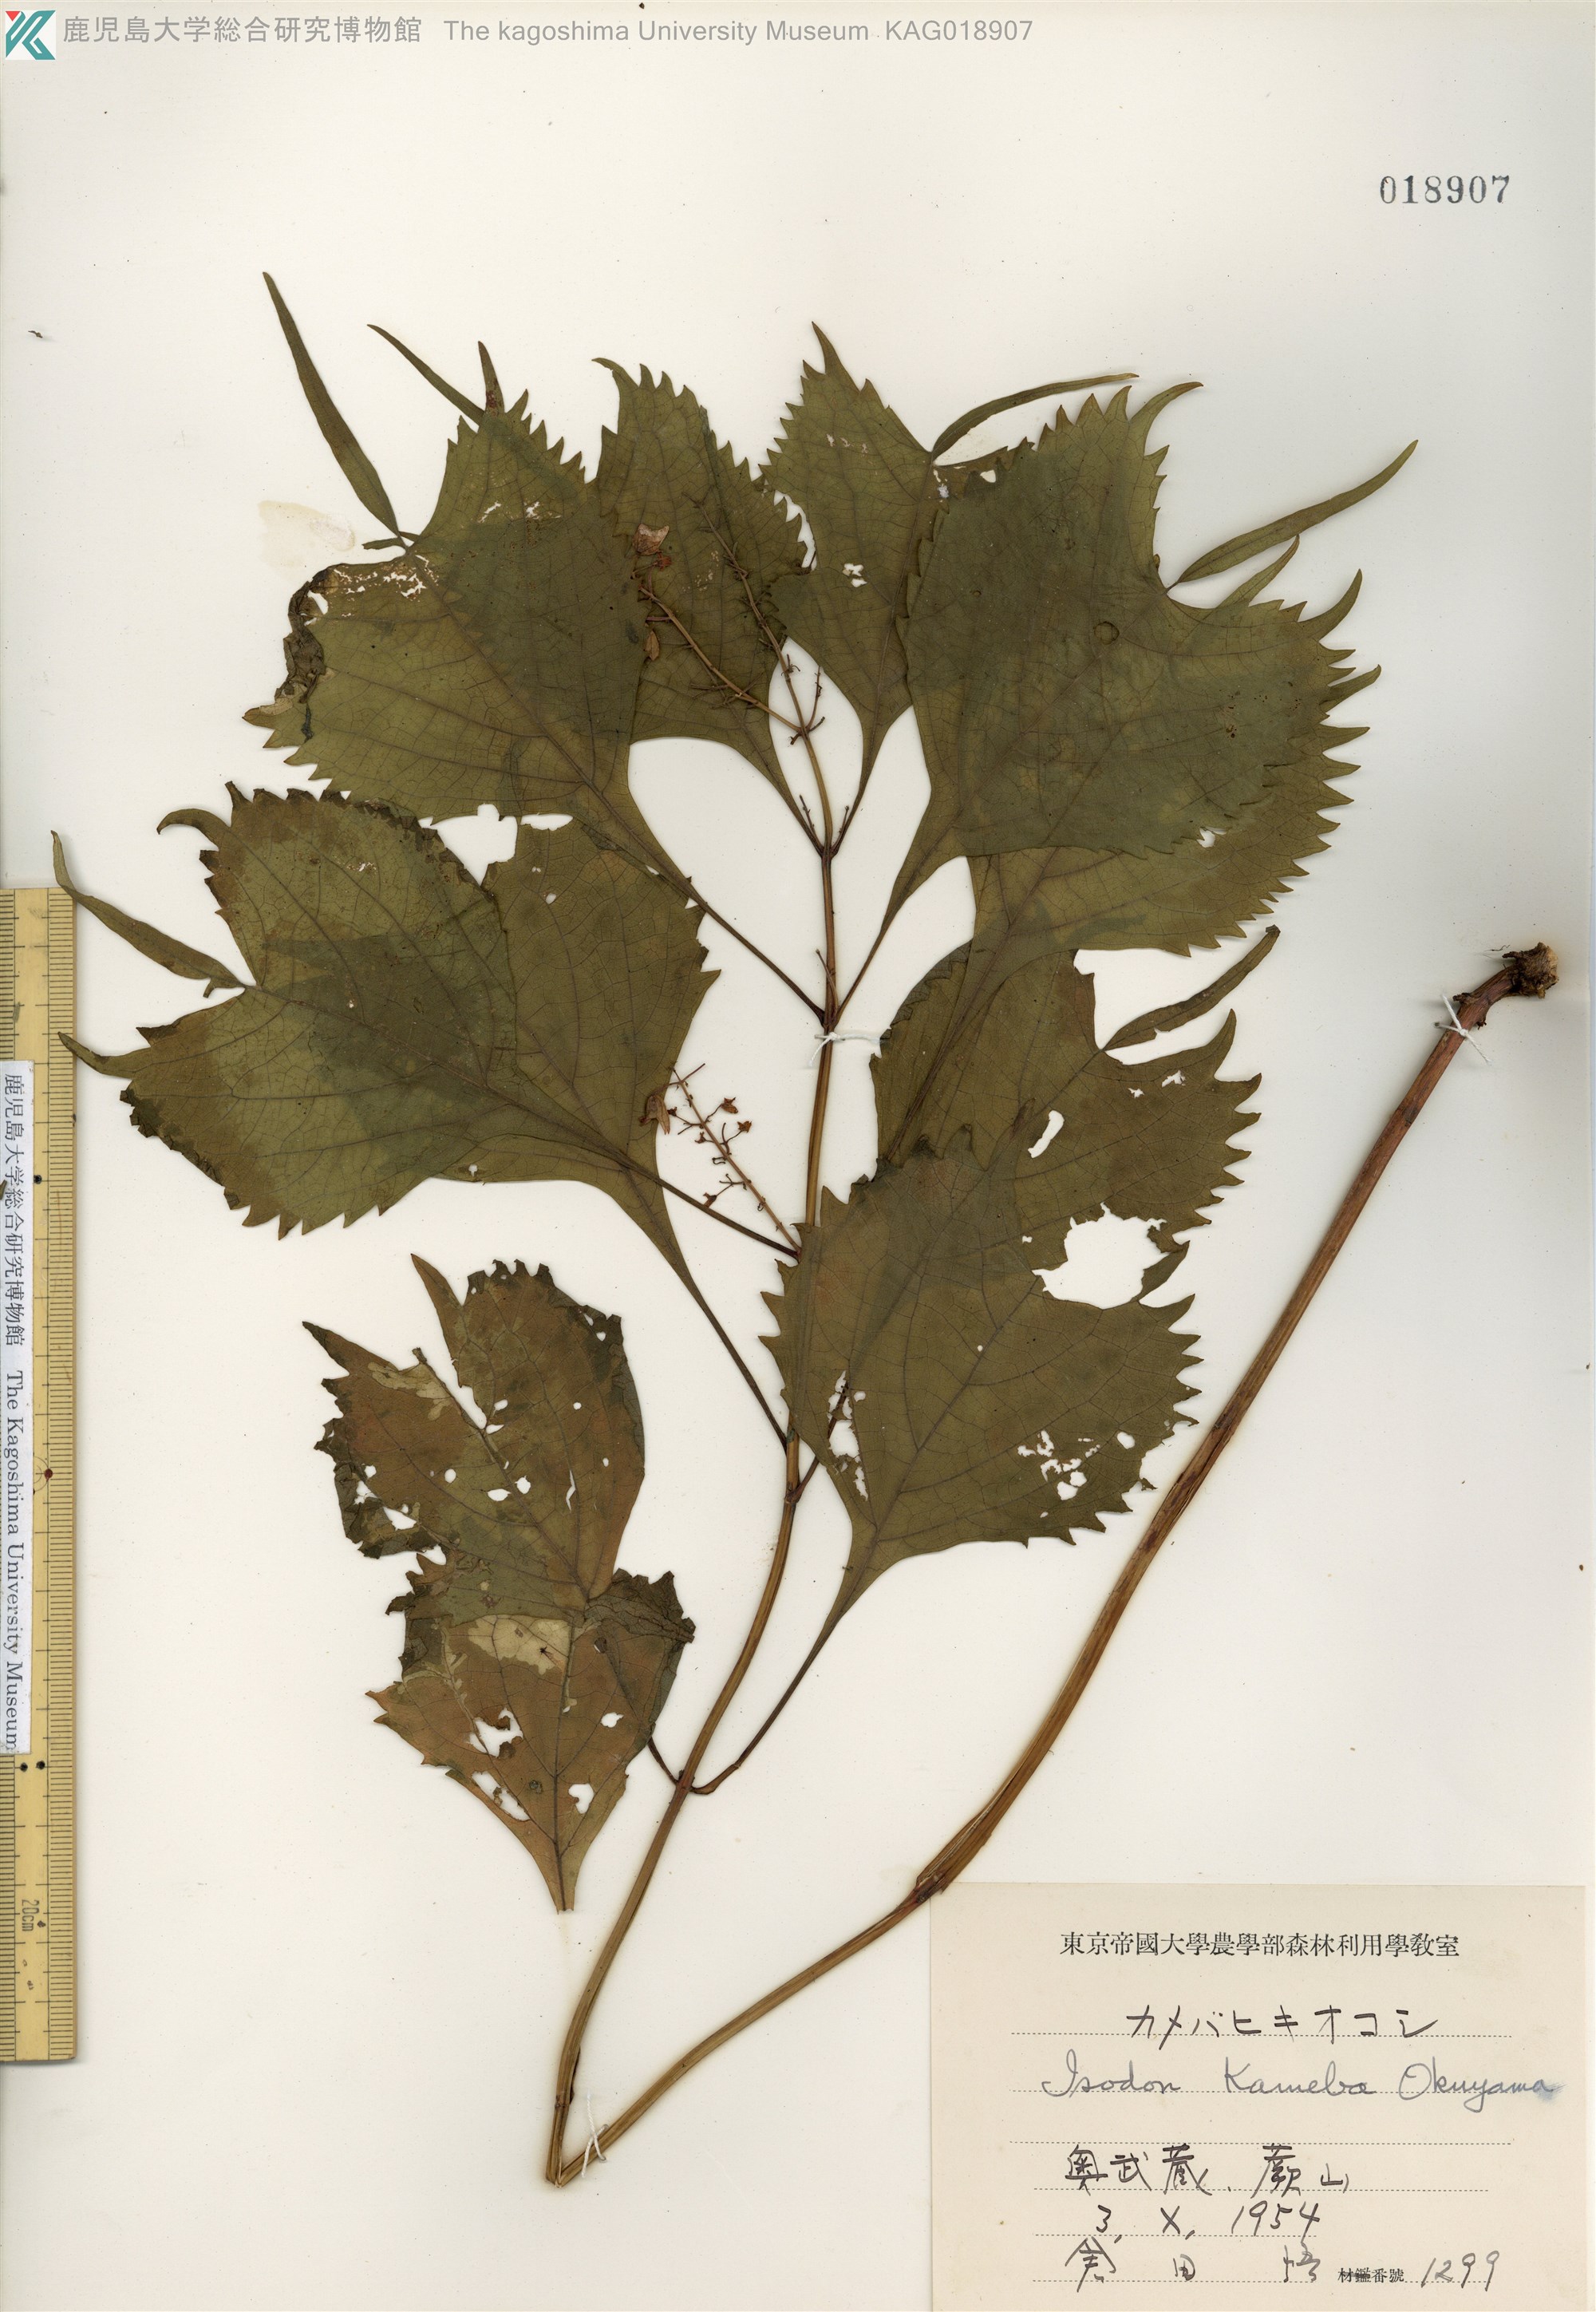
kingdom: Plantae
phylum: Tracheophyta
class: Magnoliopsida
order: Lamiales
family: Lamiaceae
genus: Isodon
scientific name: Isodon umbrosus
